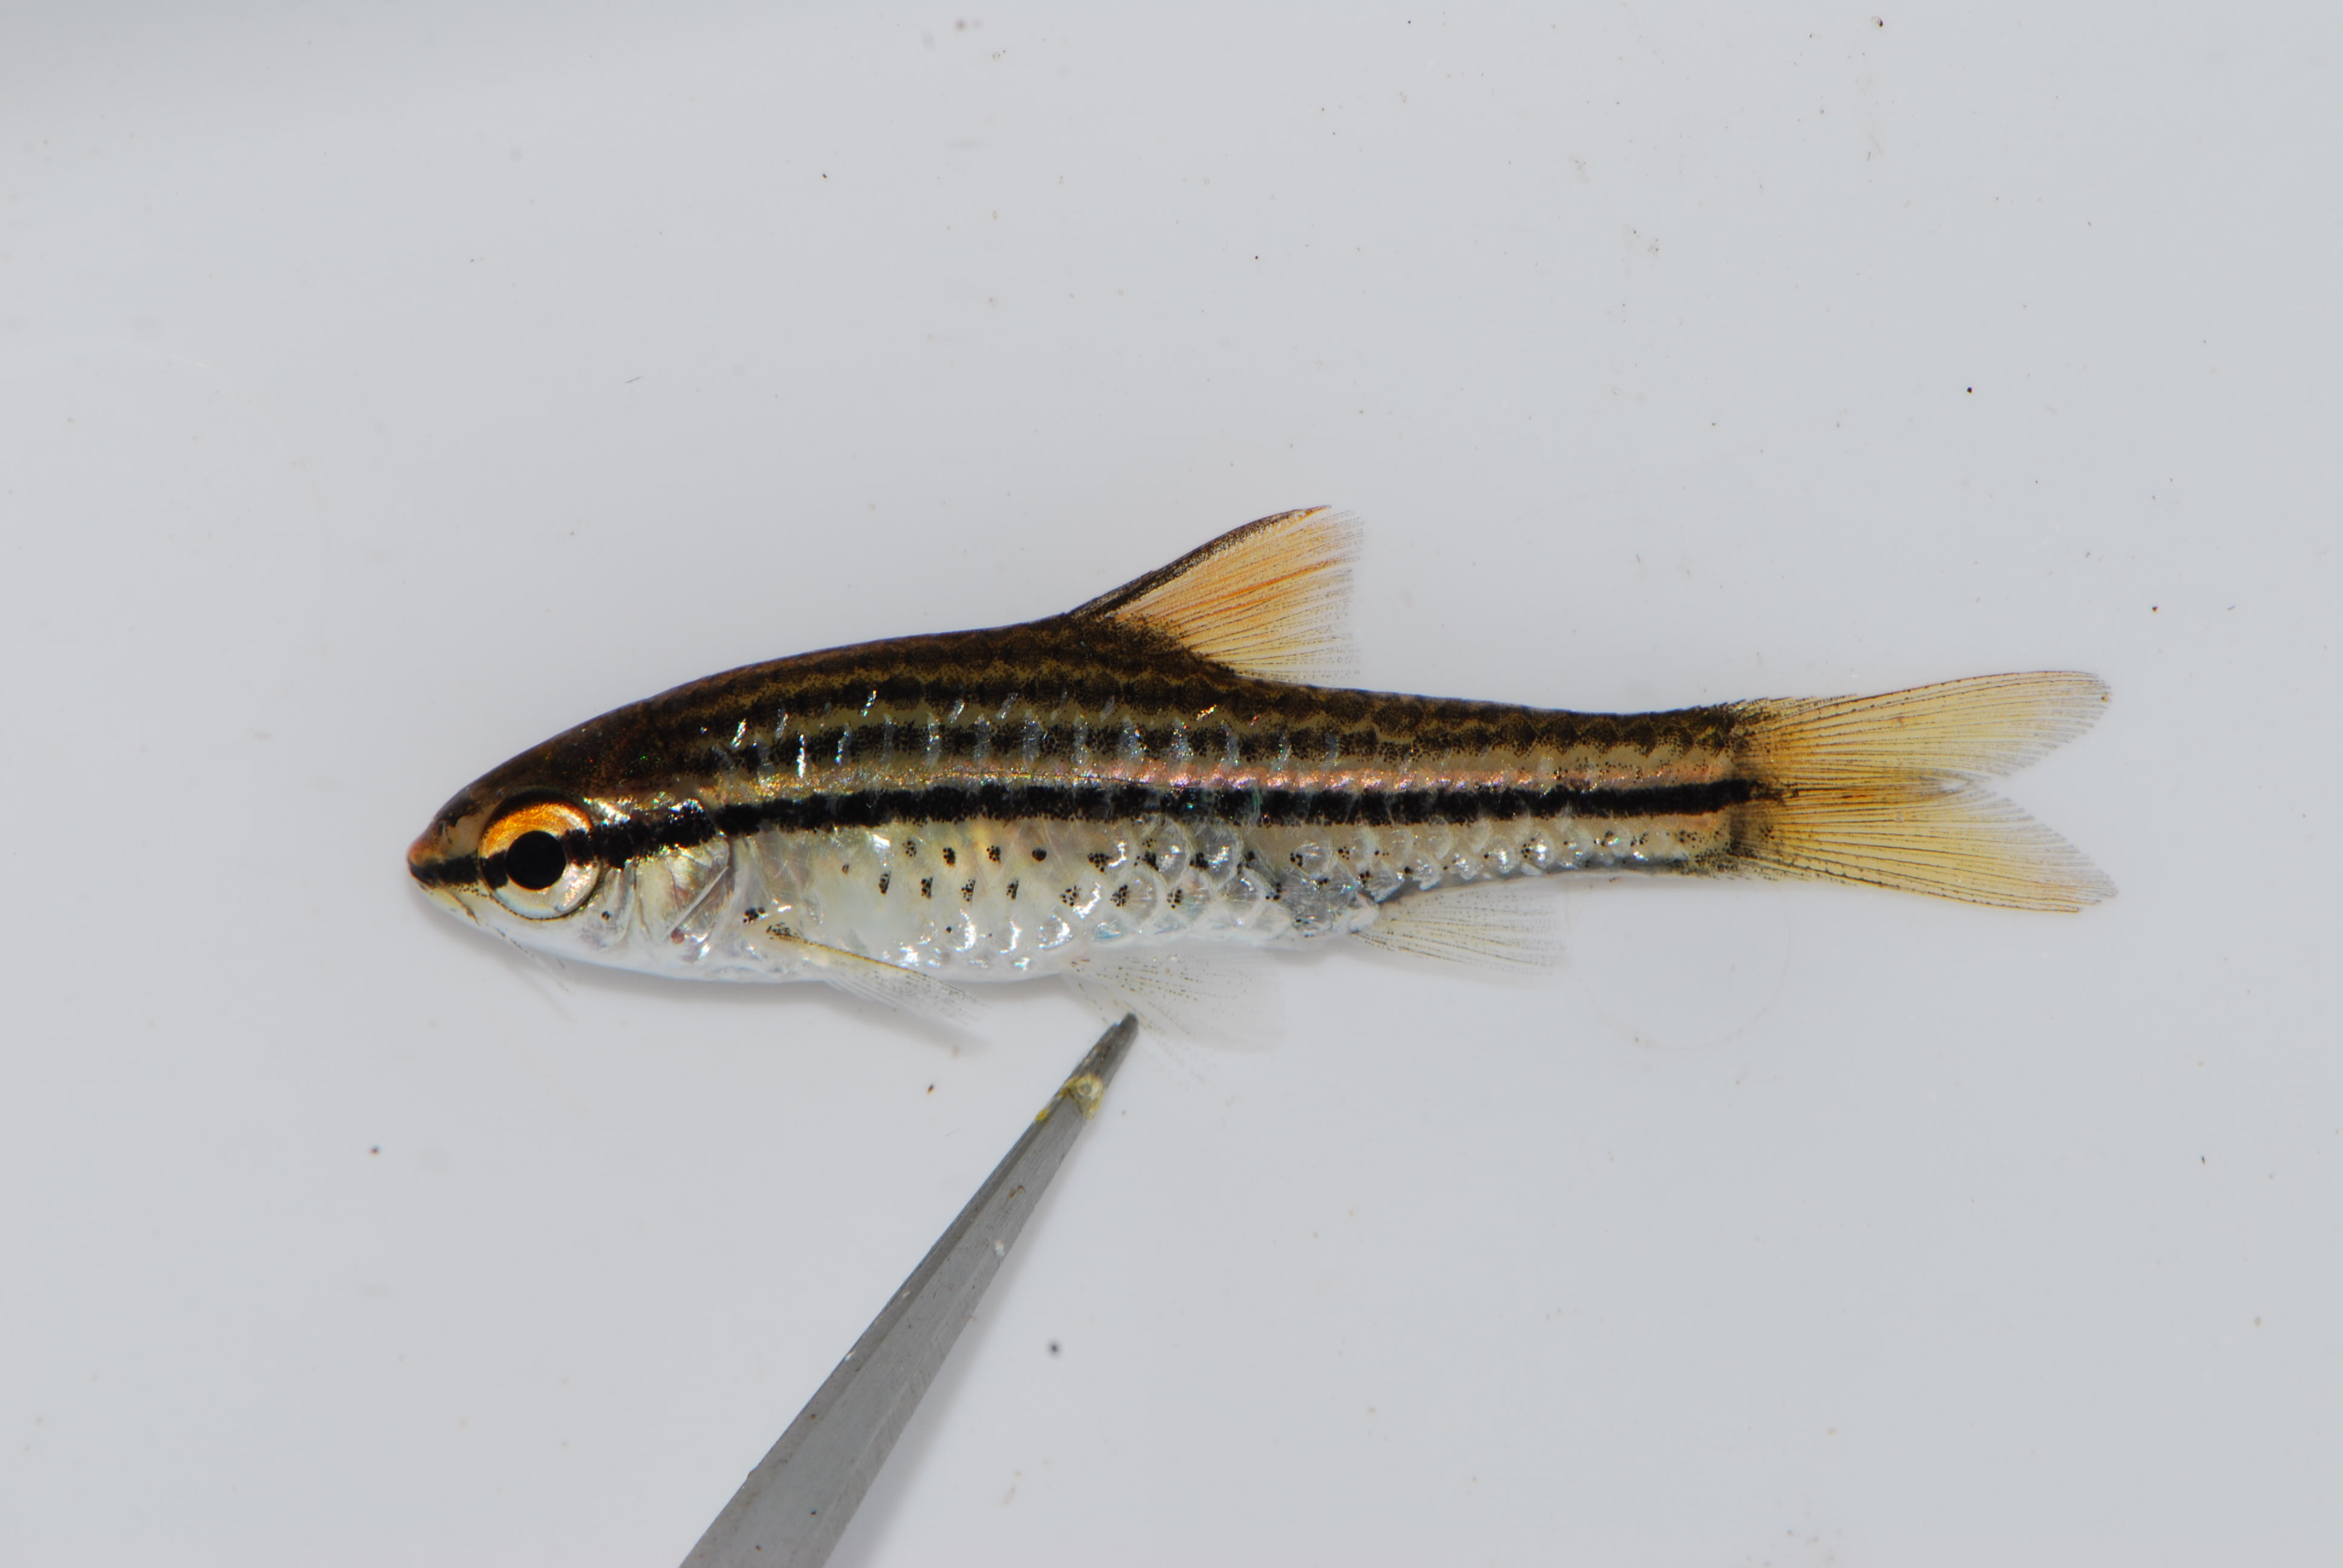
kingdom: Animalia
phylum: Chordata
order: Cypriniformes
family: Cyprinidae
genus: Enteromius
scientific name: Enteromius multilineatus
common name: Copperstripe barb
